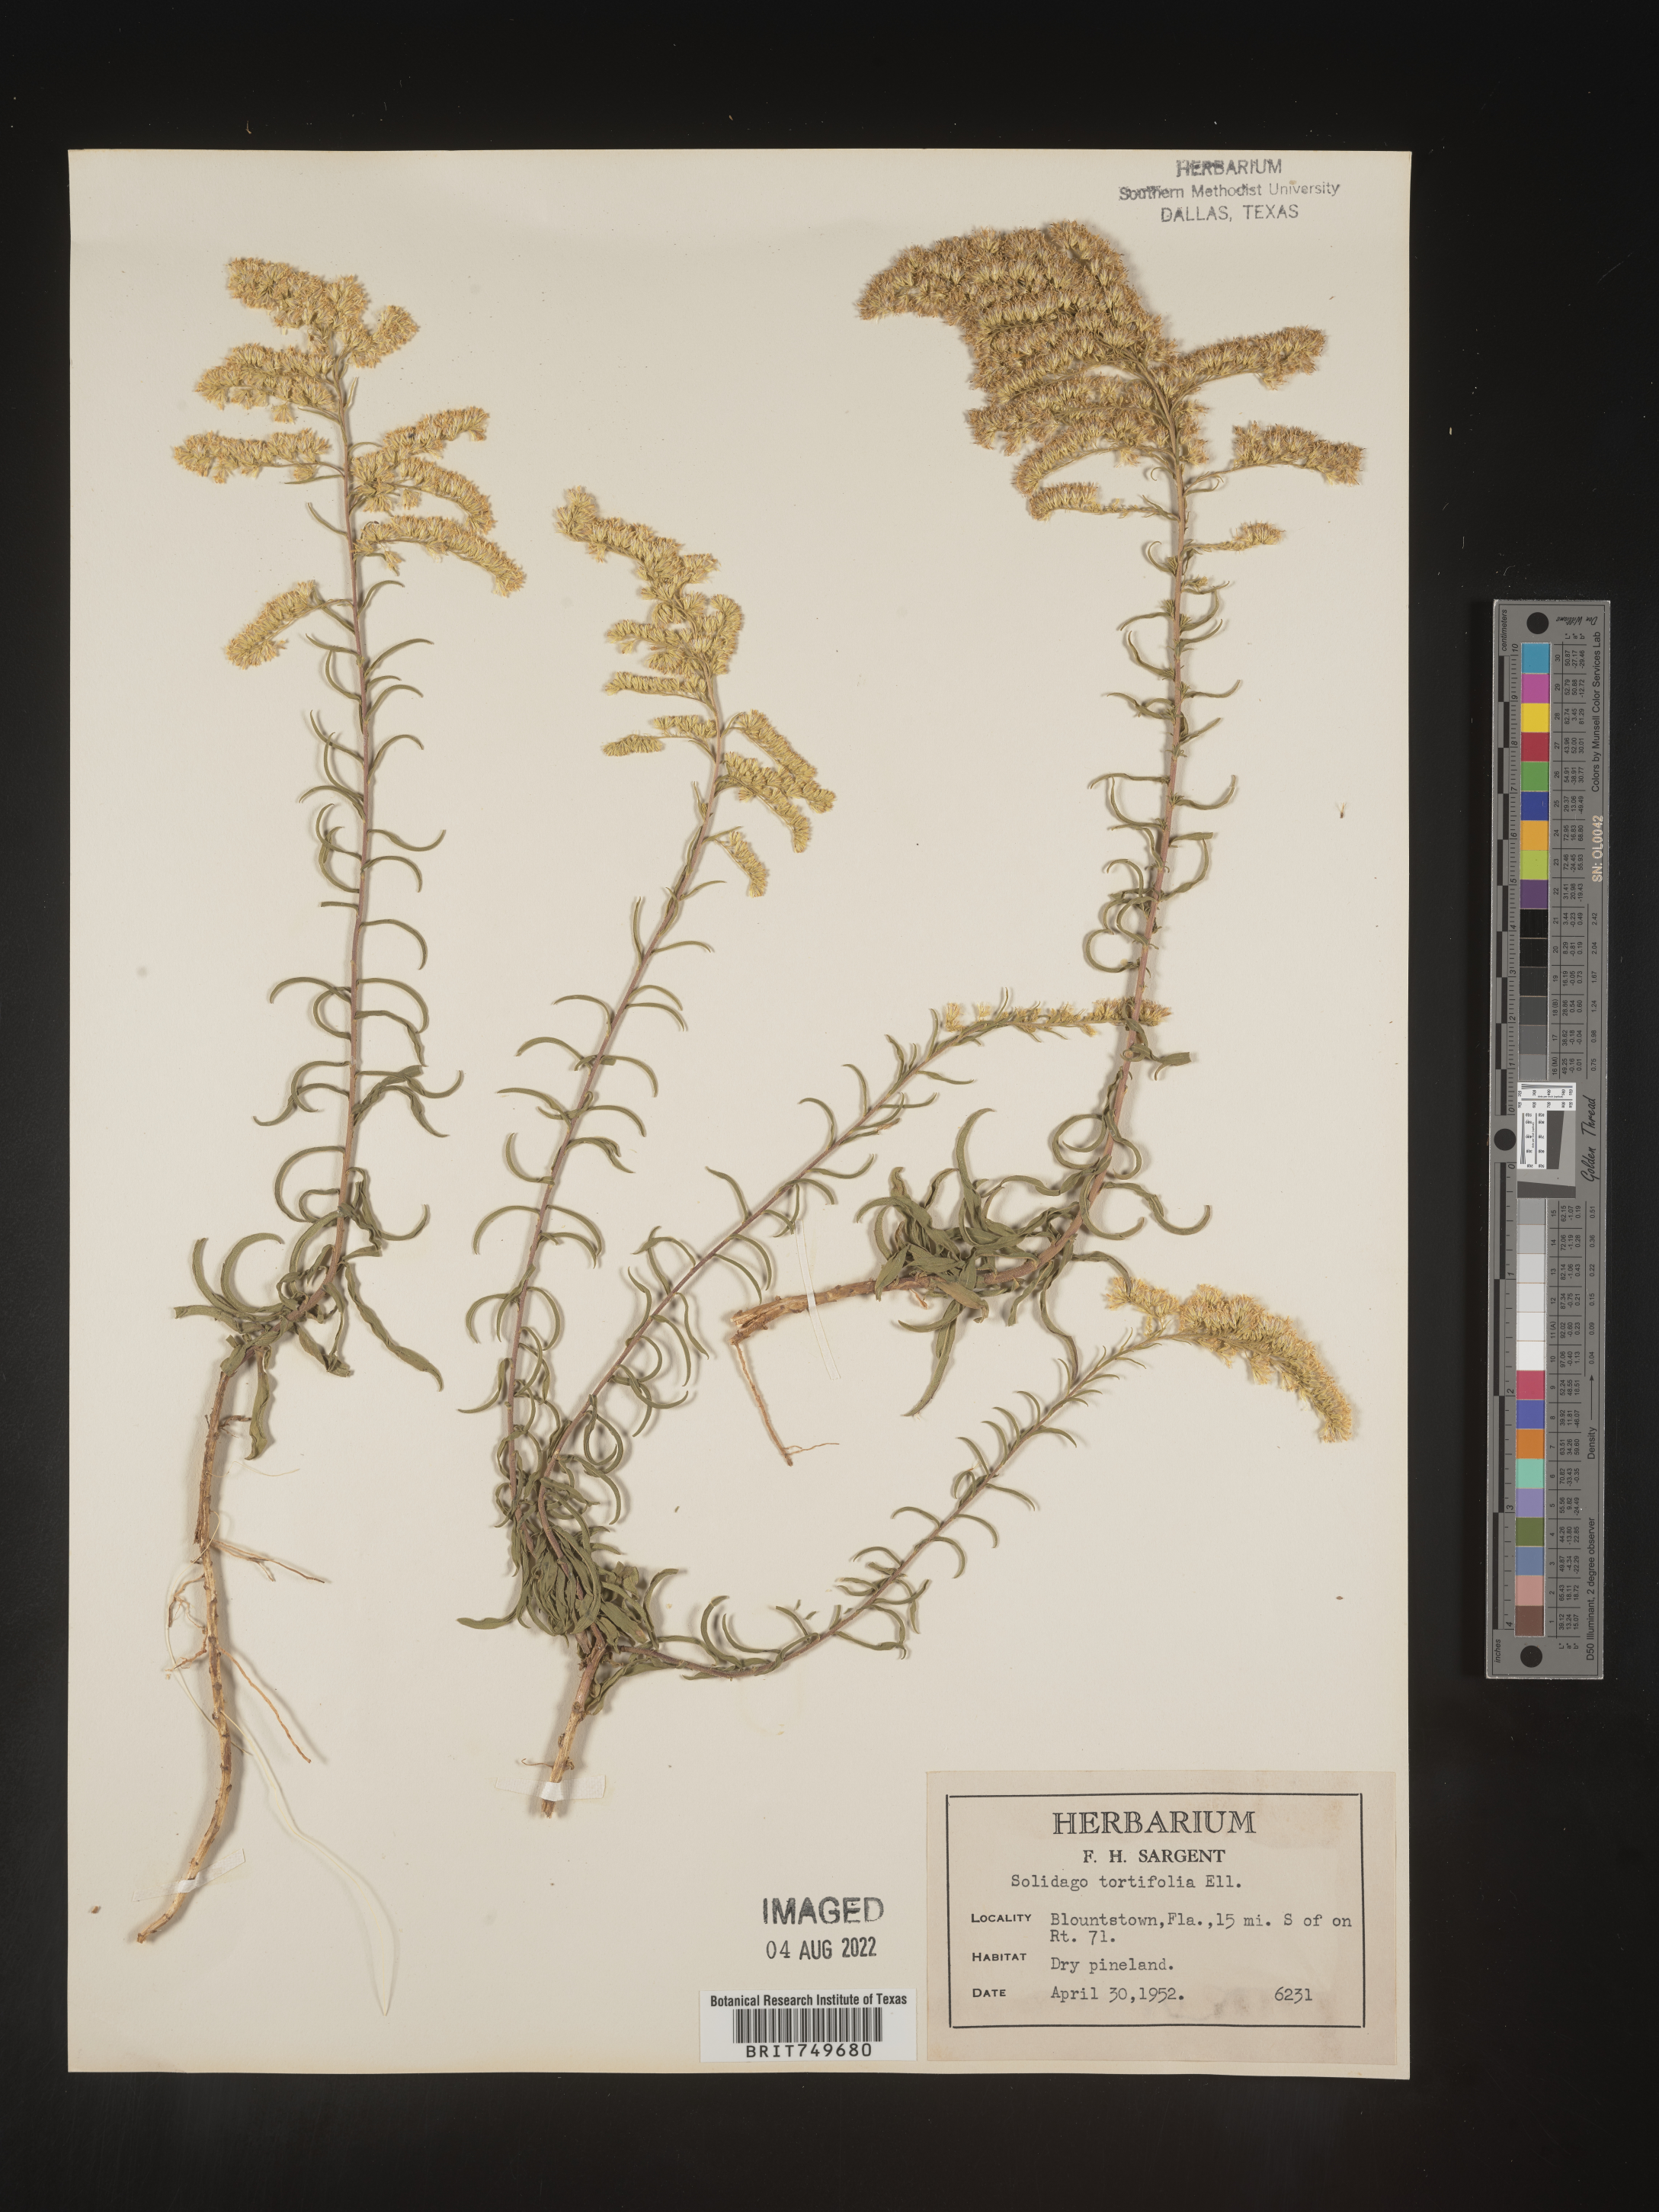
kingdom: Plantae
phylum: Tracheophyta
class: Magnoliopsida
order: Asterales
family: Asteraceae
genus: Solidago
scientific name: Solidago tortifolia
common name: Twisted-leaf goldenrod
